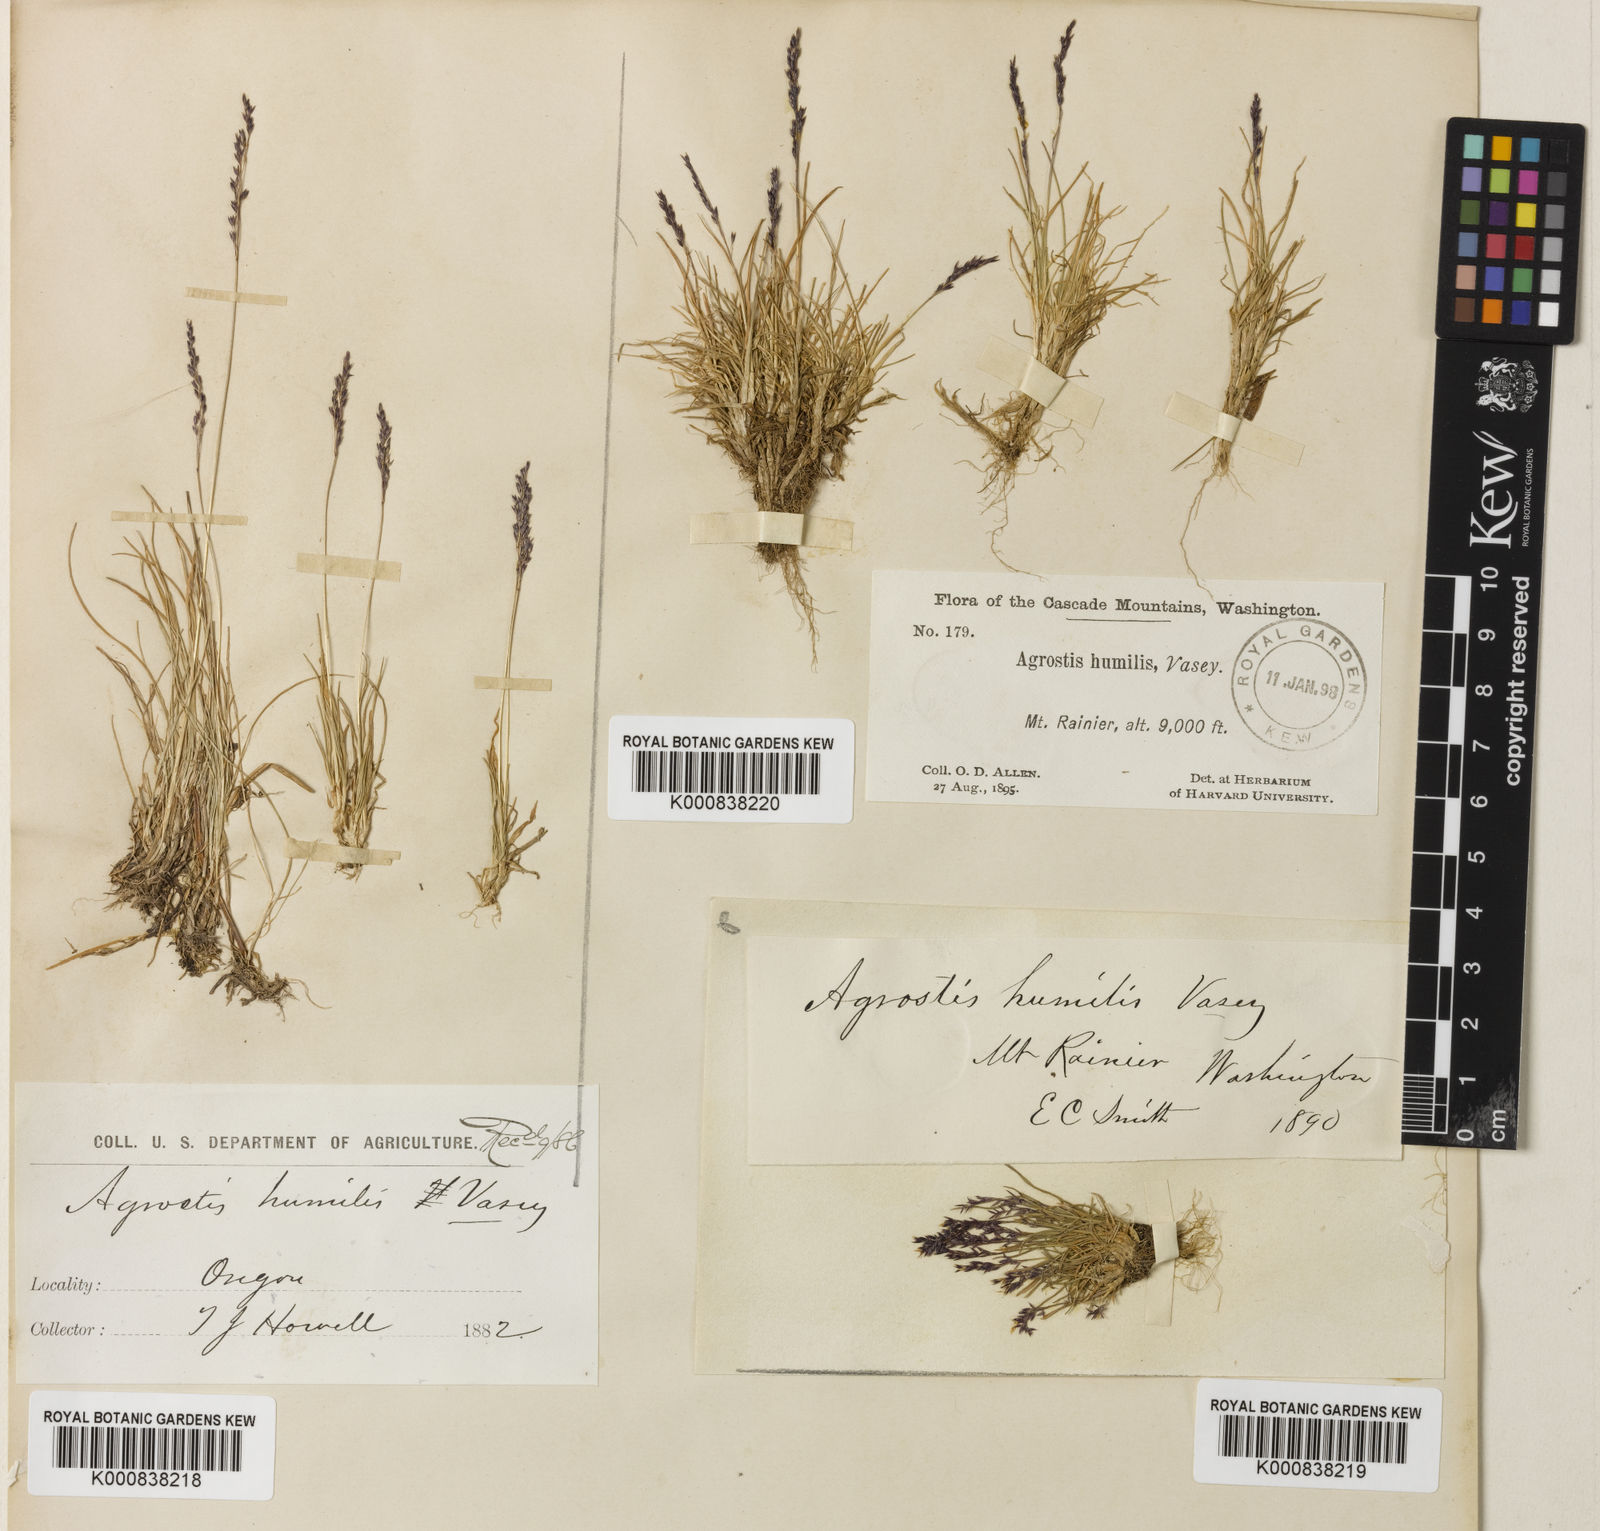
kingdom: Plantae
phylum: Tracheophyta
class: Liliopsida
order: Poales
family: Poaceae
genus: Podagrostis
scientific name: Podagrostis humilis
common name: Thurber's bentgrass
